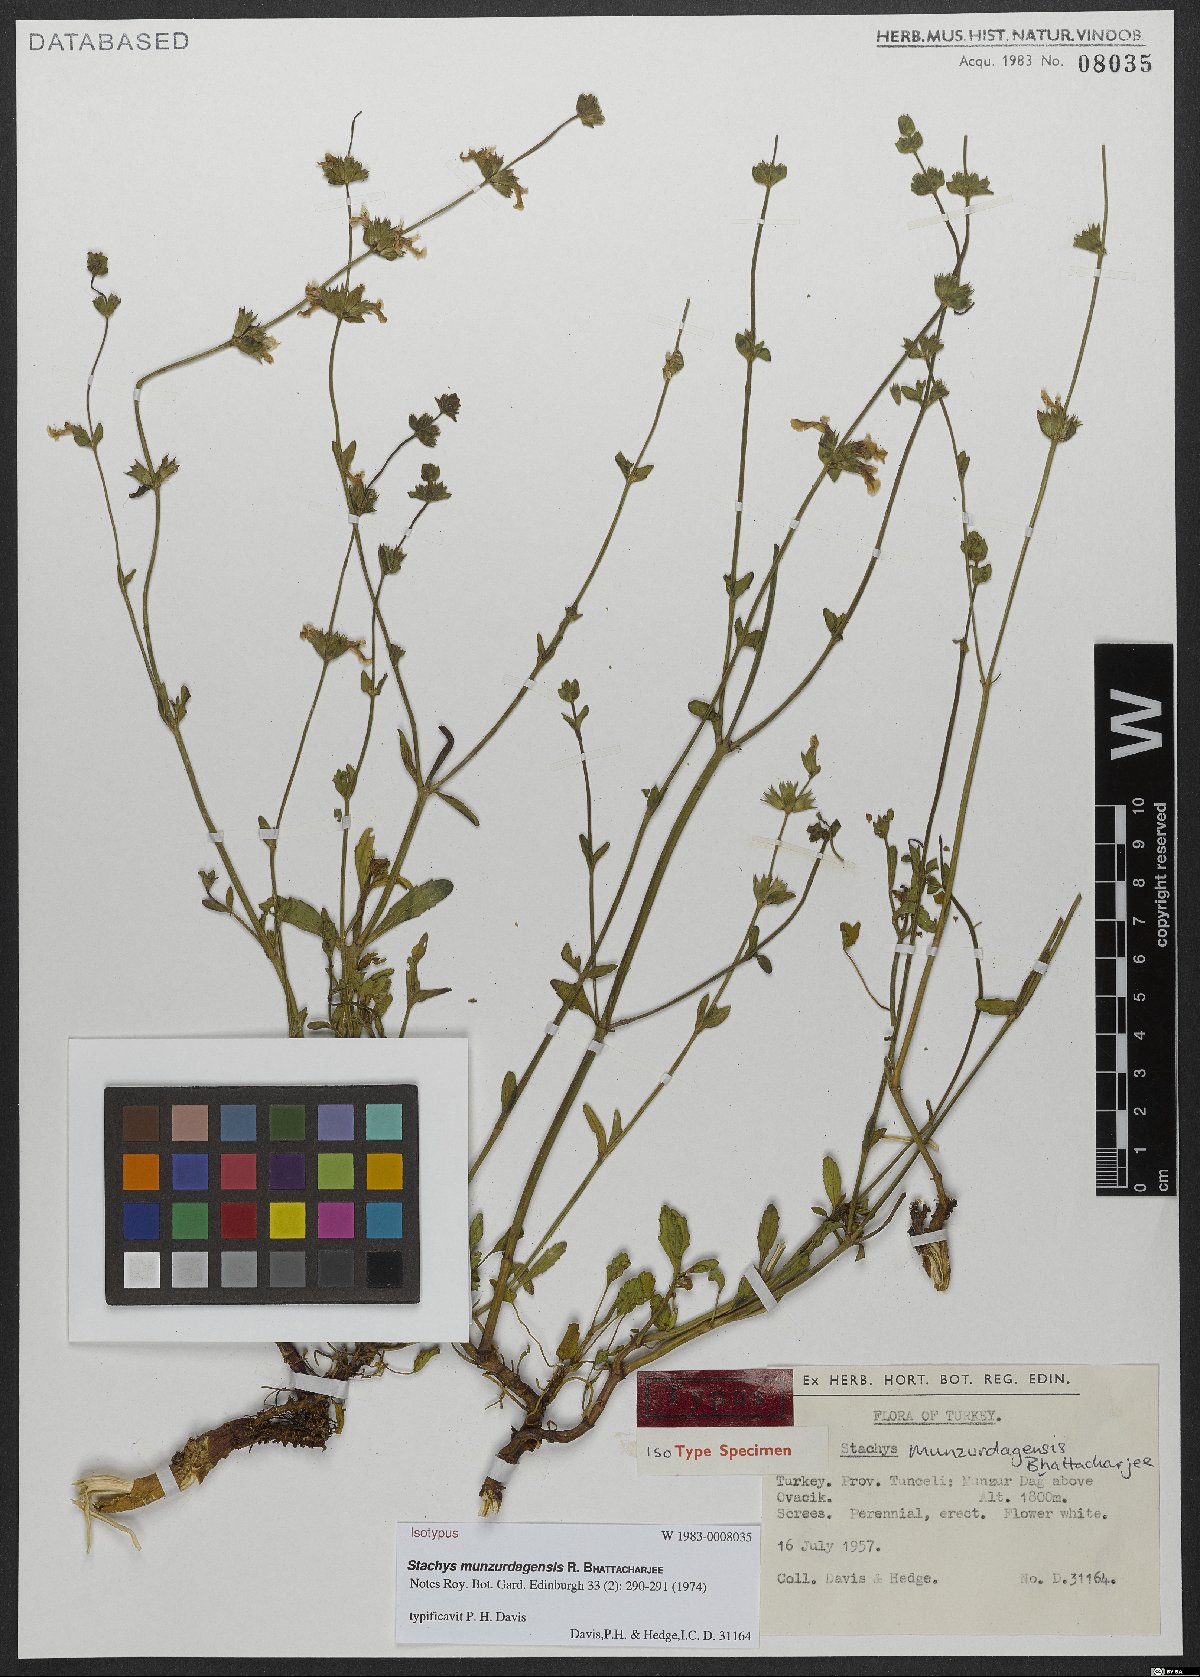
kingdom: Plantae
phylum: Tracheophyta
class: Magnoliopsida
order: Lamiales
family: Lamiaceae
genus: Stachys
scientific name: Stachys munzurdagensis
